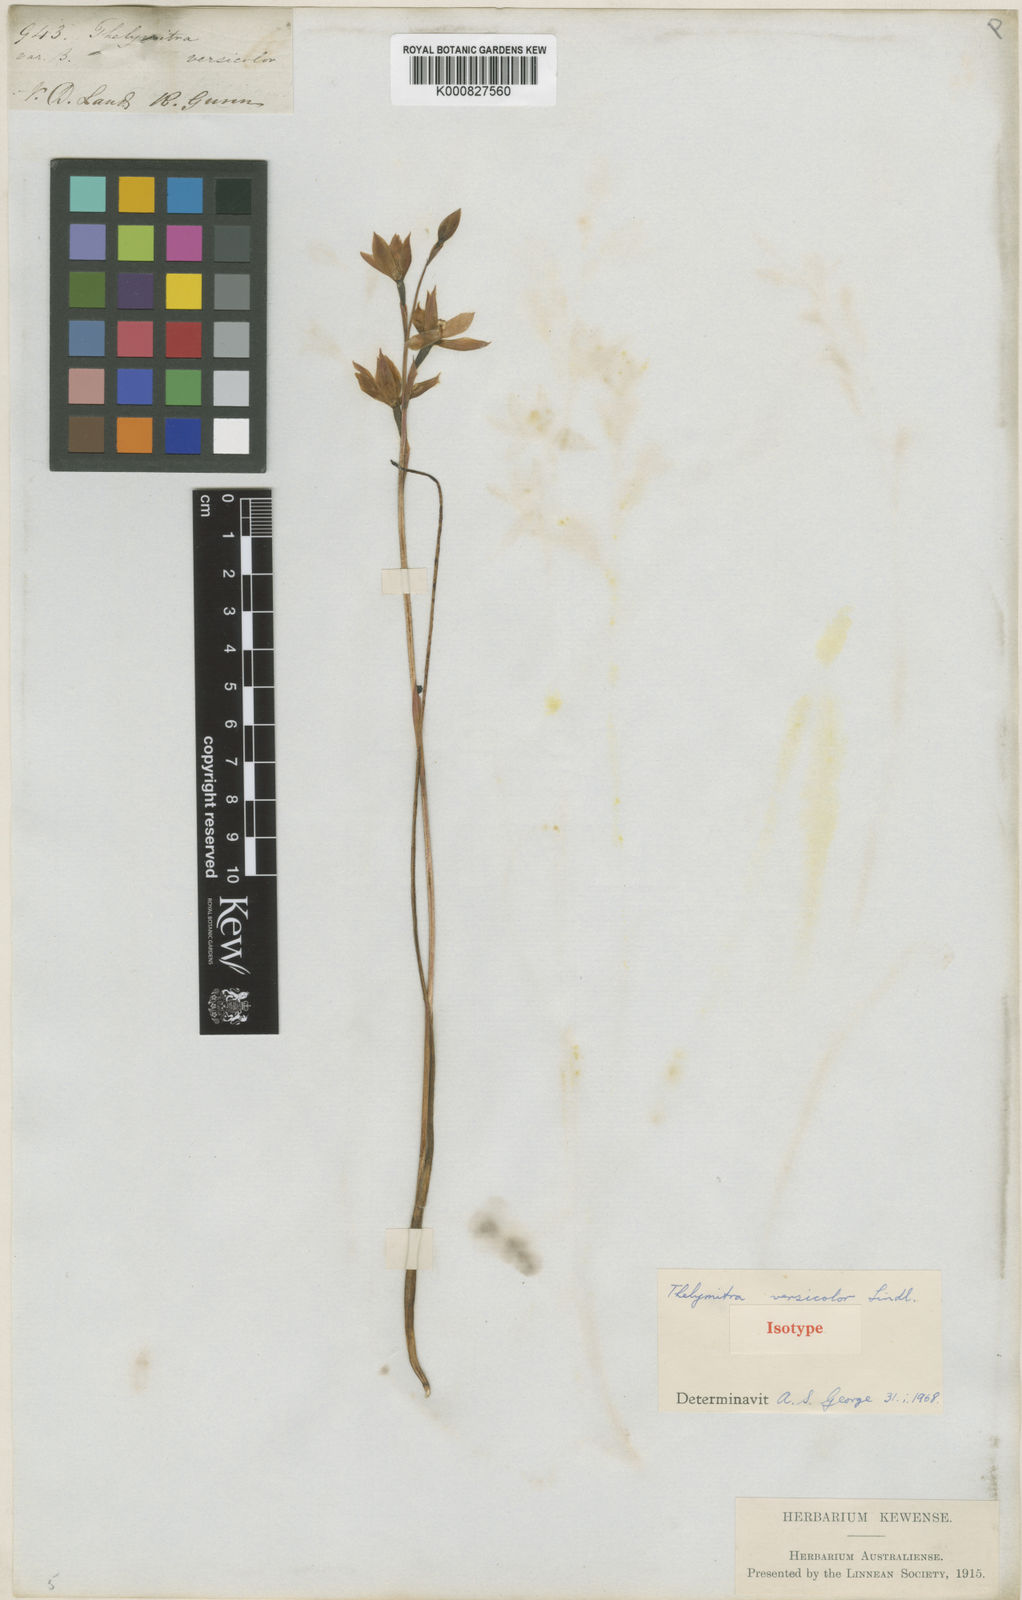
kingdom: Plantae
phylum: Tracheophyta
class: Liliopsida
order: Asparagales
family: Orchidaceae
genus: Thelymitra
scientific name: Thelymitra nuda
